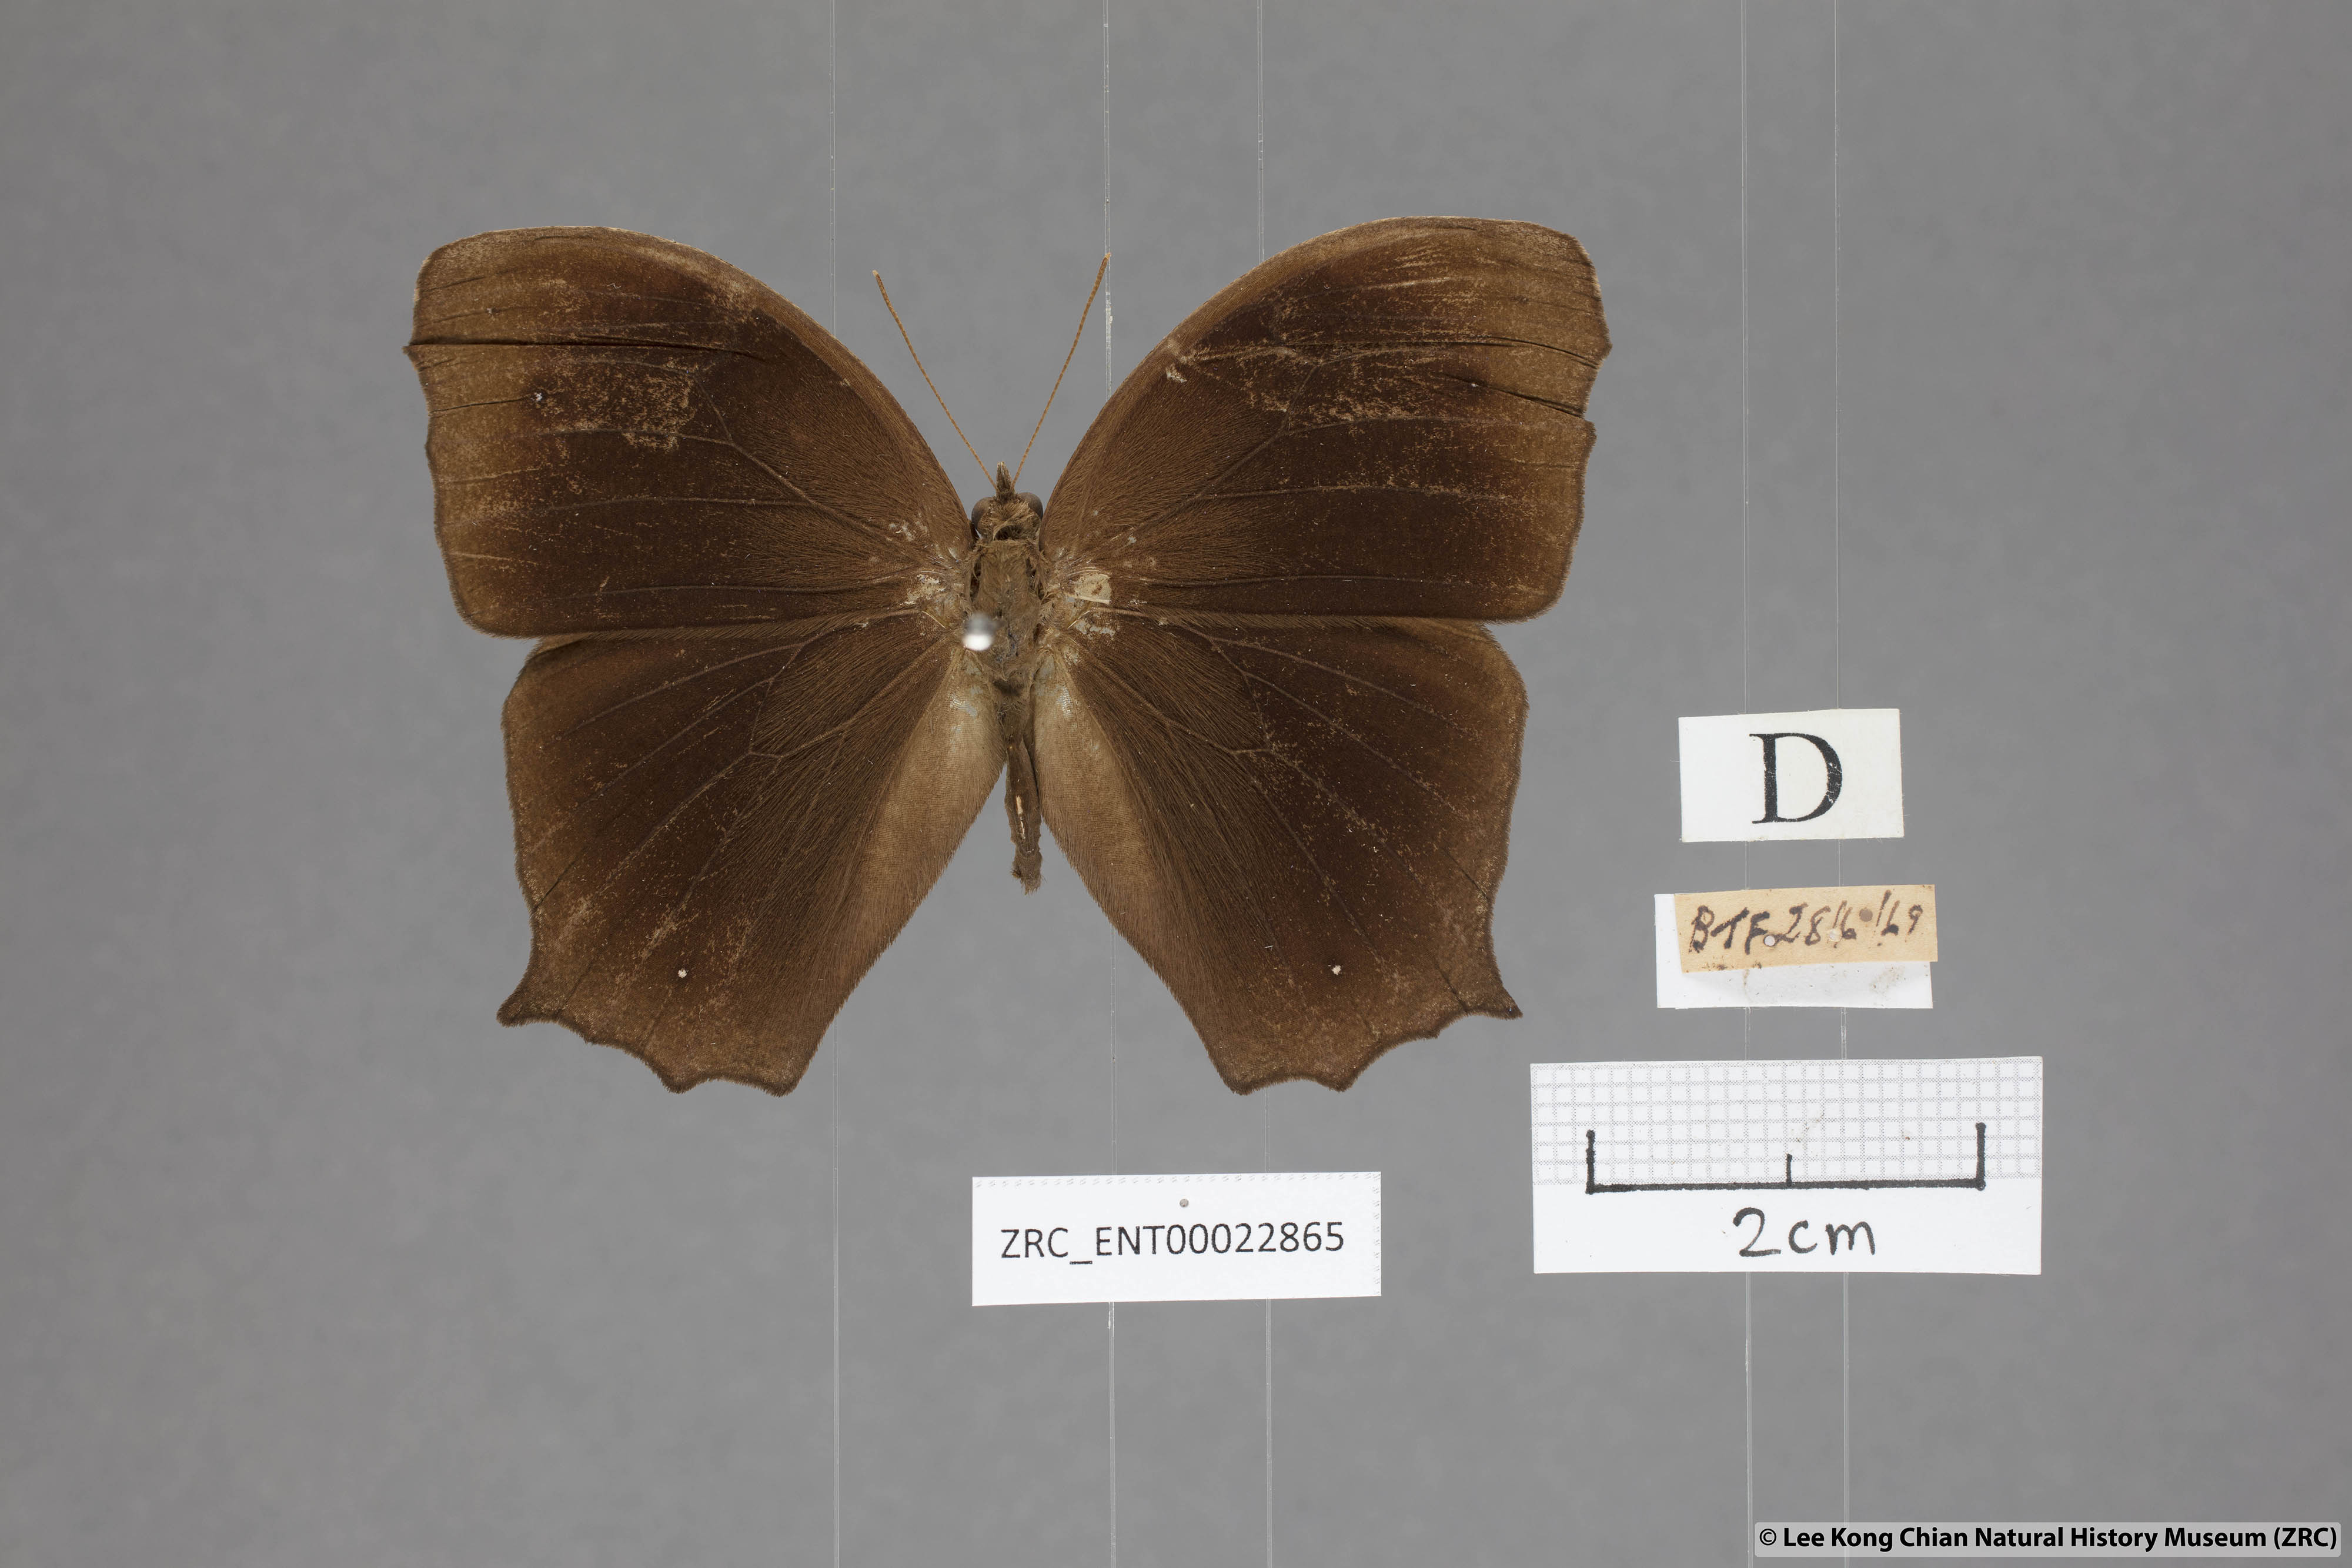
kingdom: Animalia
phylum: Arthropoda
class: Insecta
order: Lepidoptera
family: Nymphalidae
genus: Melanitis
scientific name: Melanitis phedima
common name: Dark evening brown
